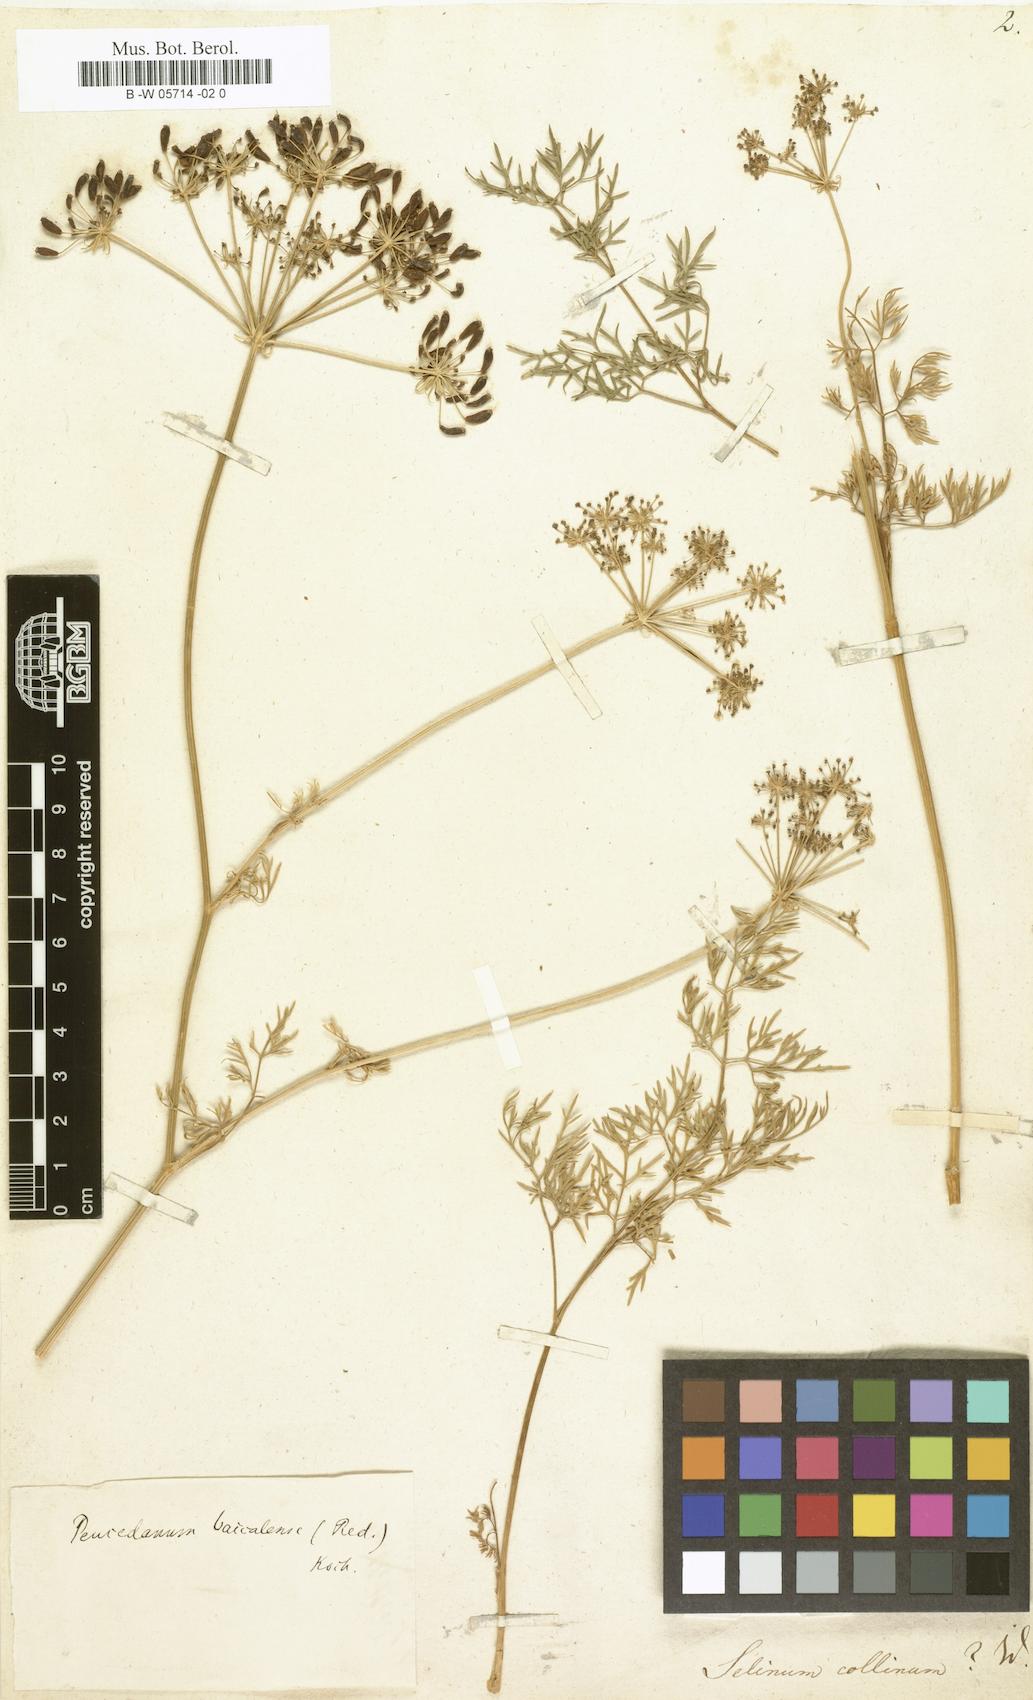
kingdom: Plantae
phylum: Tracheophyta
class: Magnoliopsida
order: Apiales
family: Apiaceae
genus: Kitagawia
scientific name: Kitagawia baicalensis
